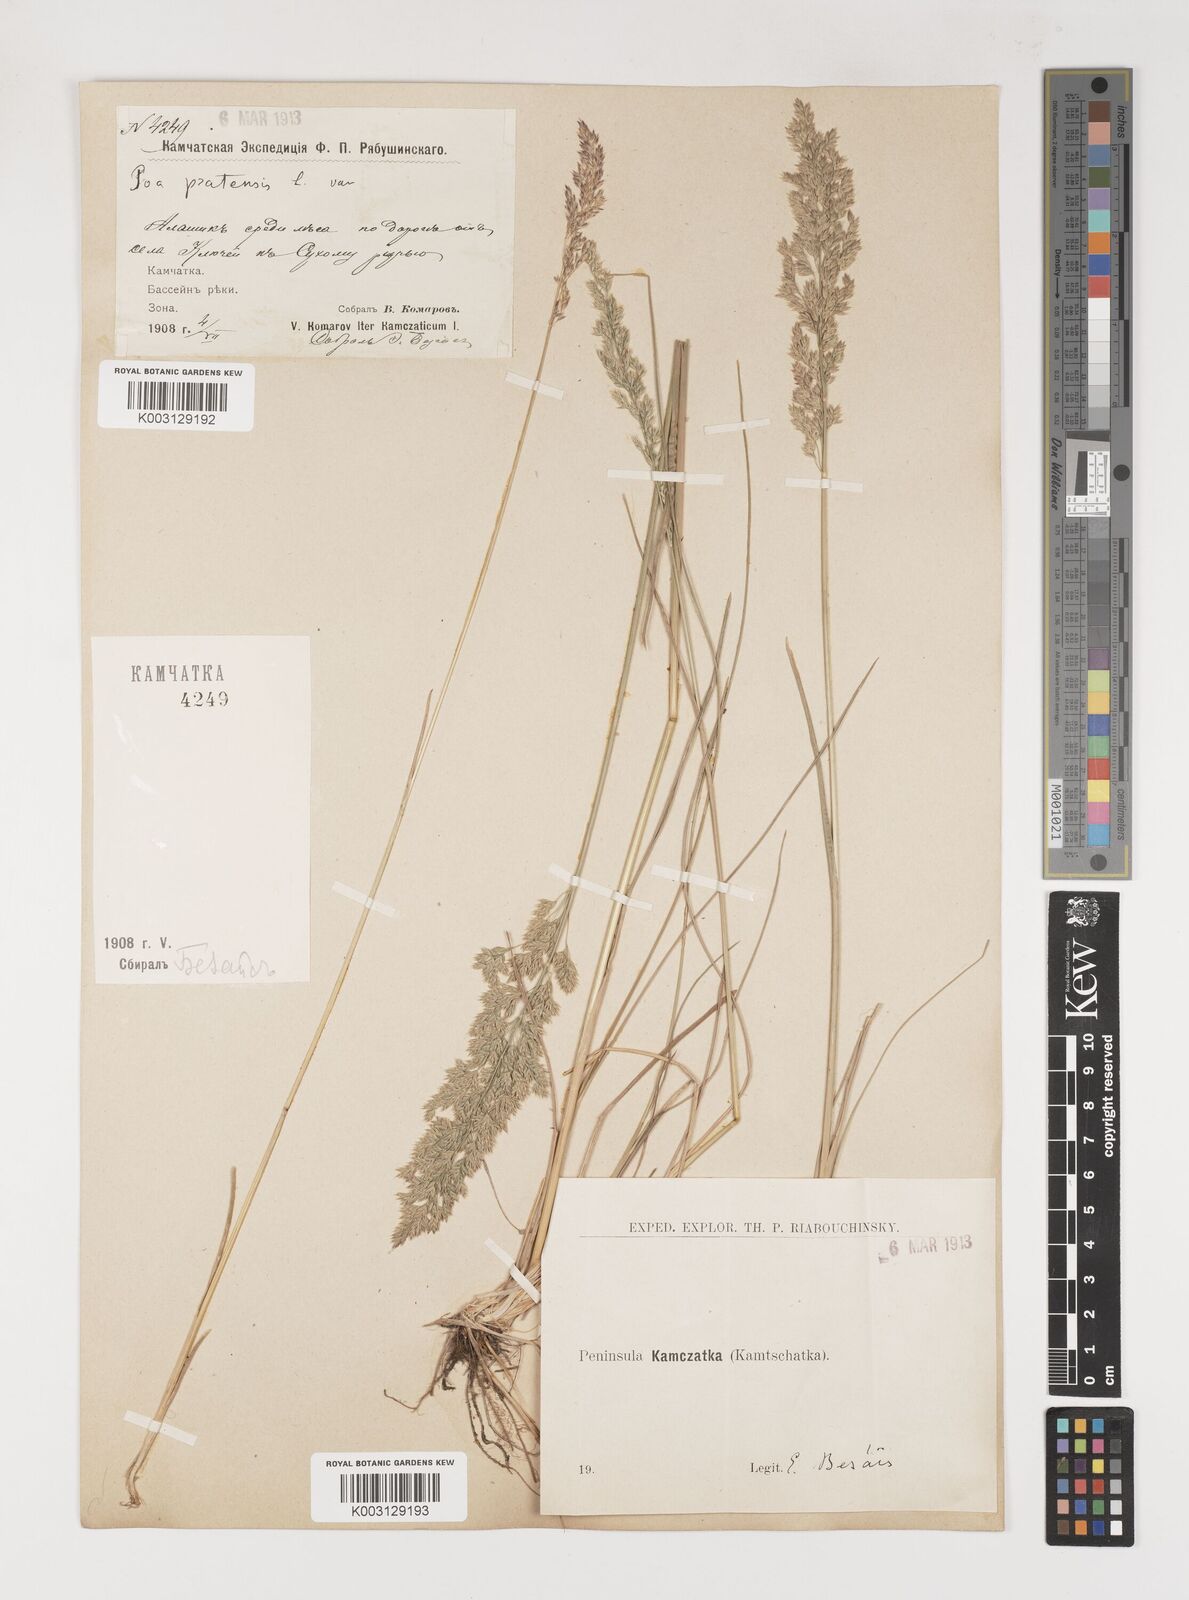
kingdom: Plantae
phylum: Tracheophyta
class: Liliopsida
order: Poales
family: Poaceae
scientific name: Poaceae
